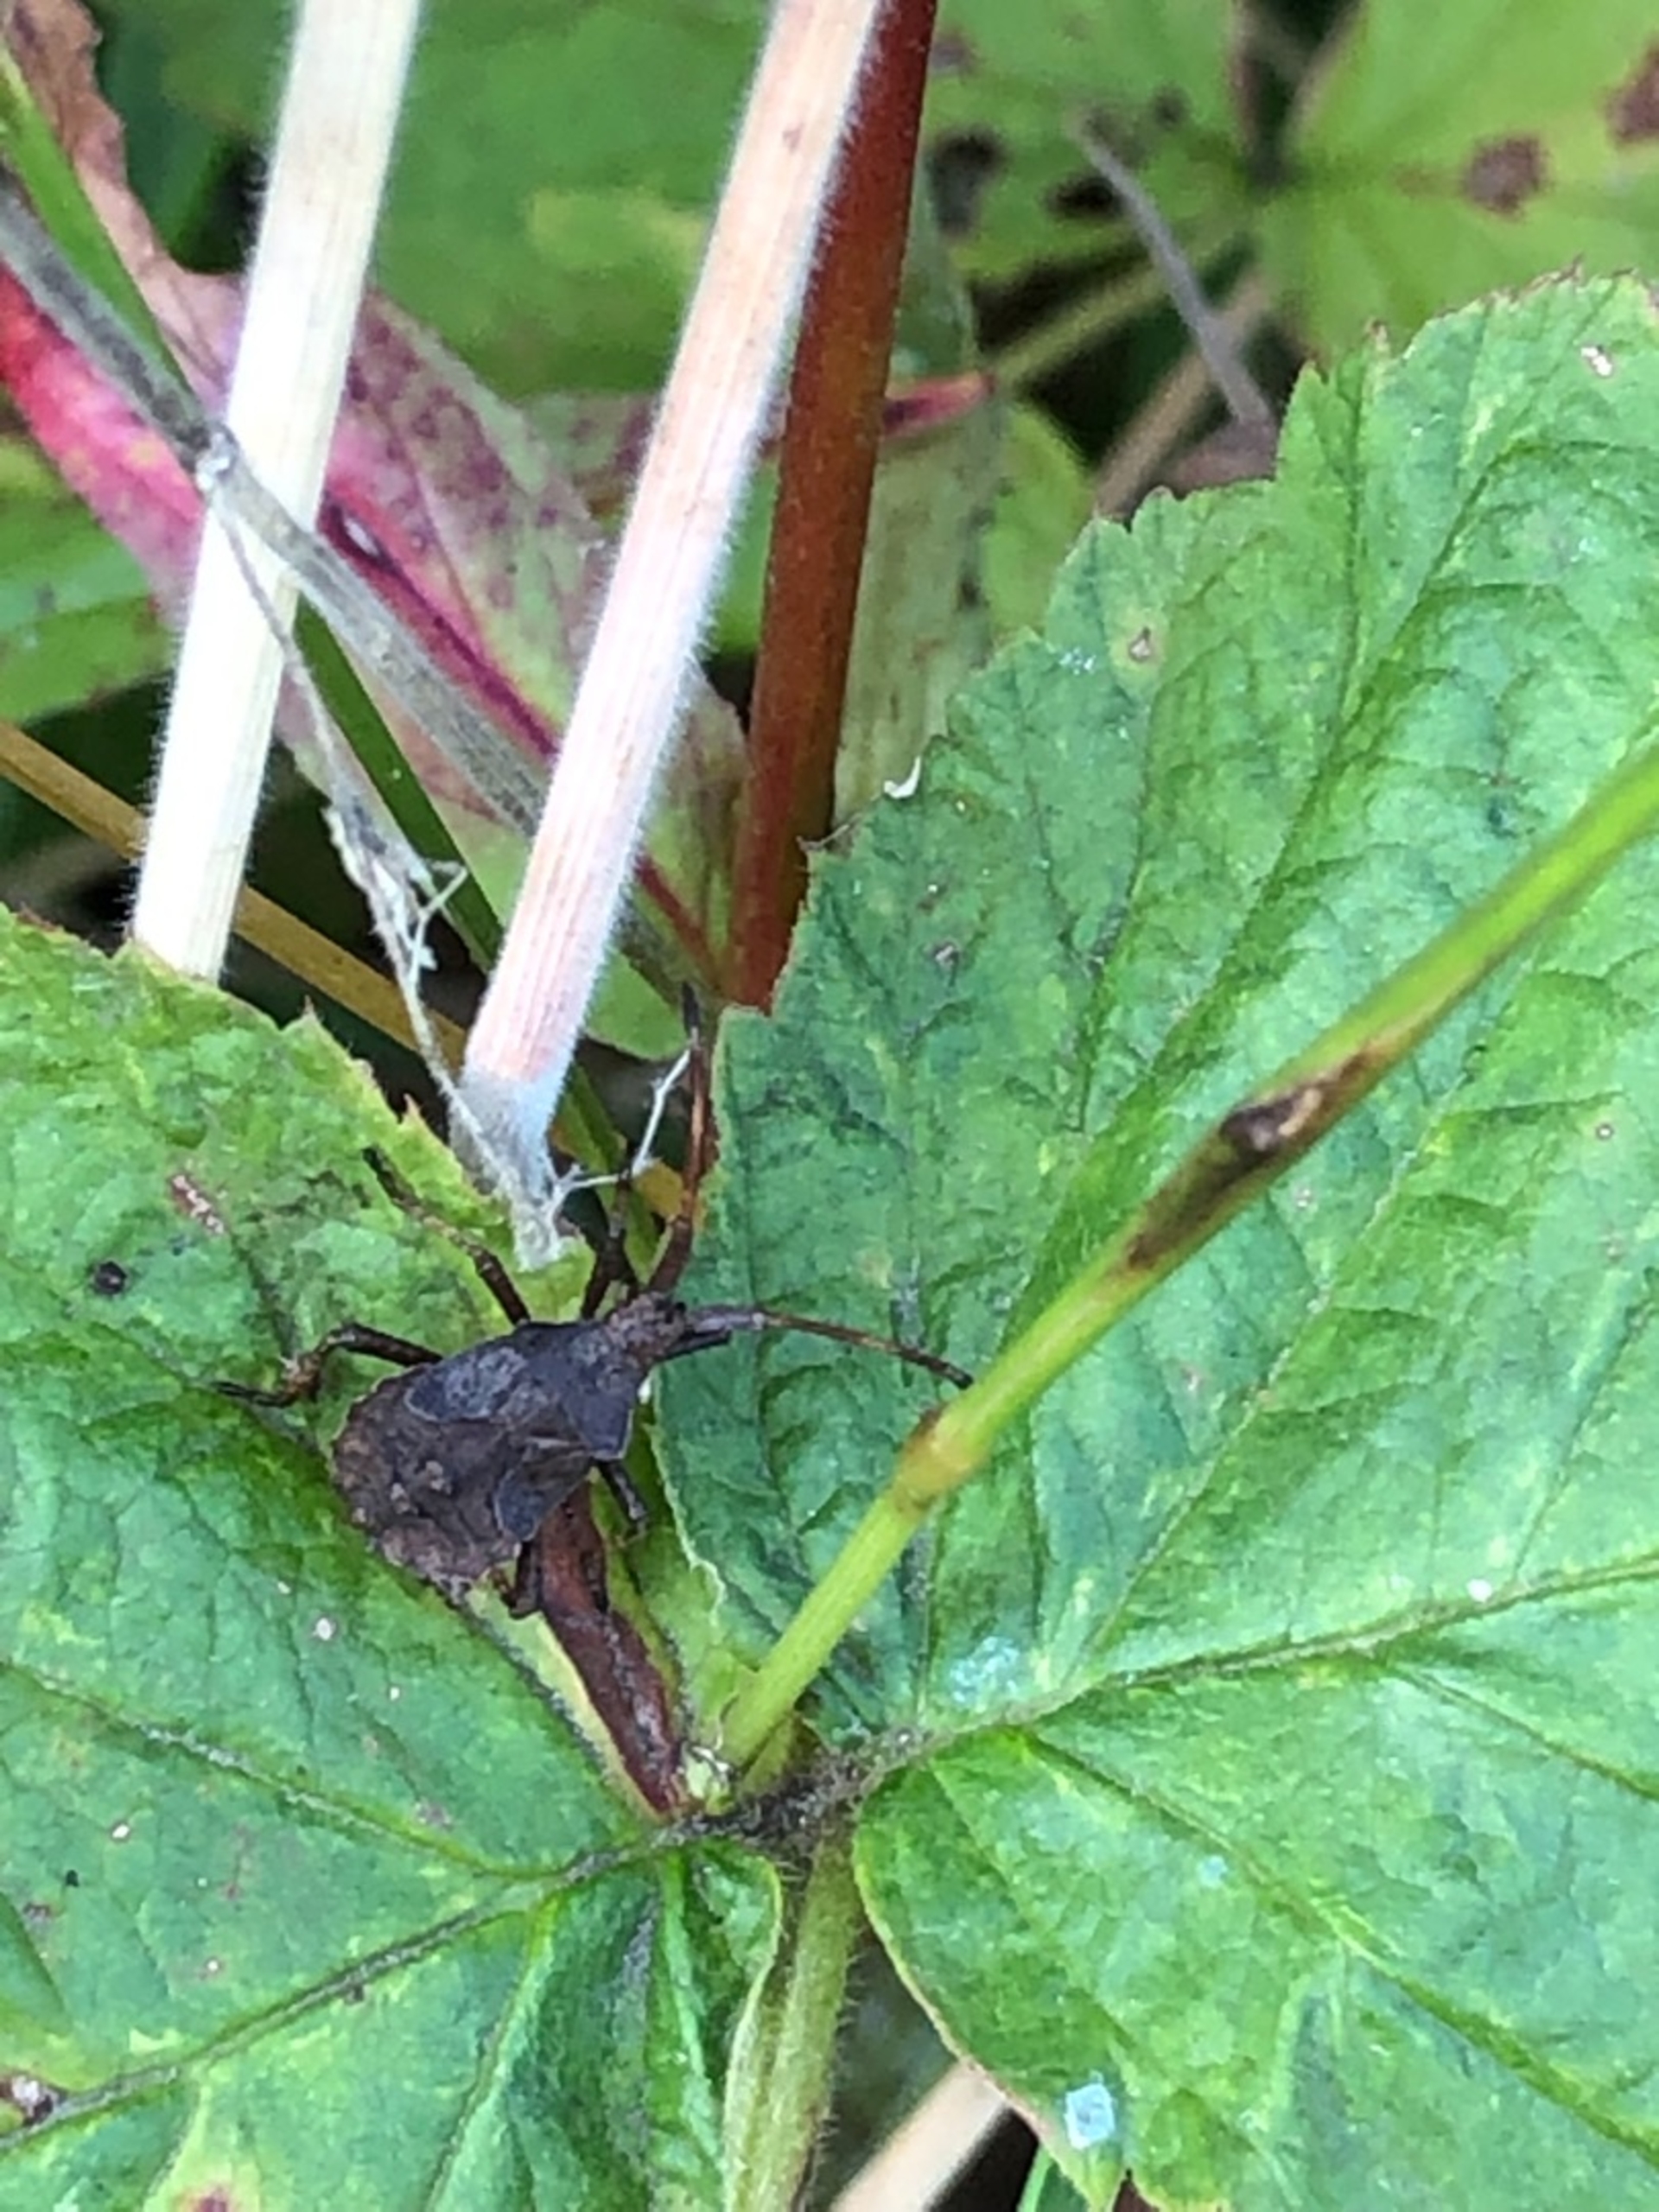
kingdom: Animalia
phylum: Arthropoda
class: Insecta
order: Hemiptera
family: Coreidae
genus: Coreus
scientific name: Coreus marginatus
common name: Skræppetæge
